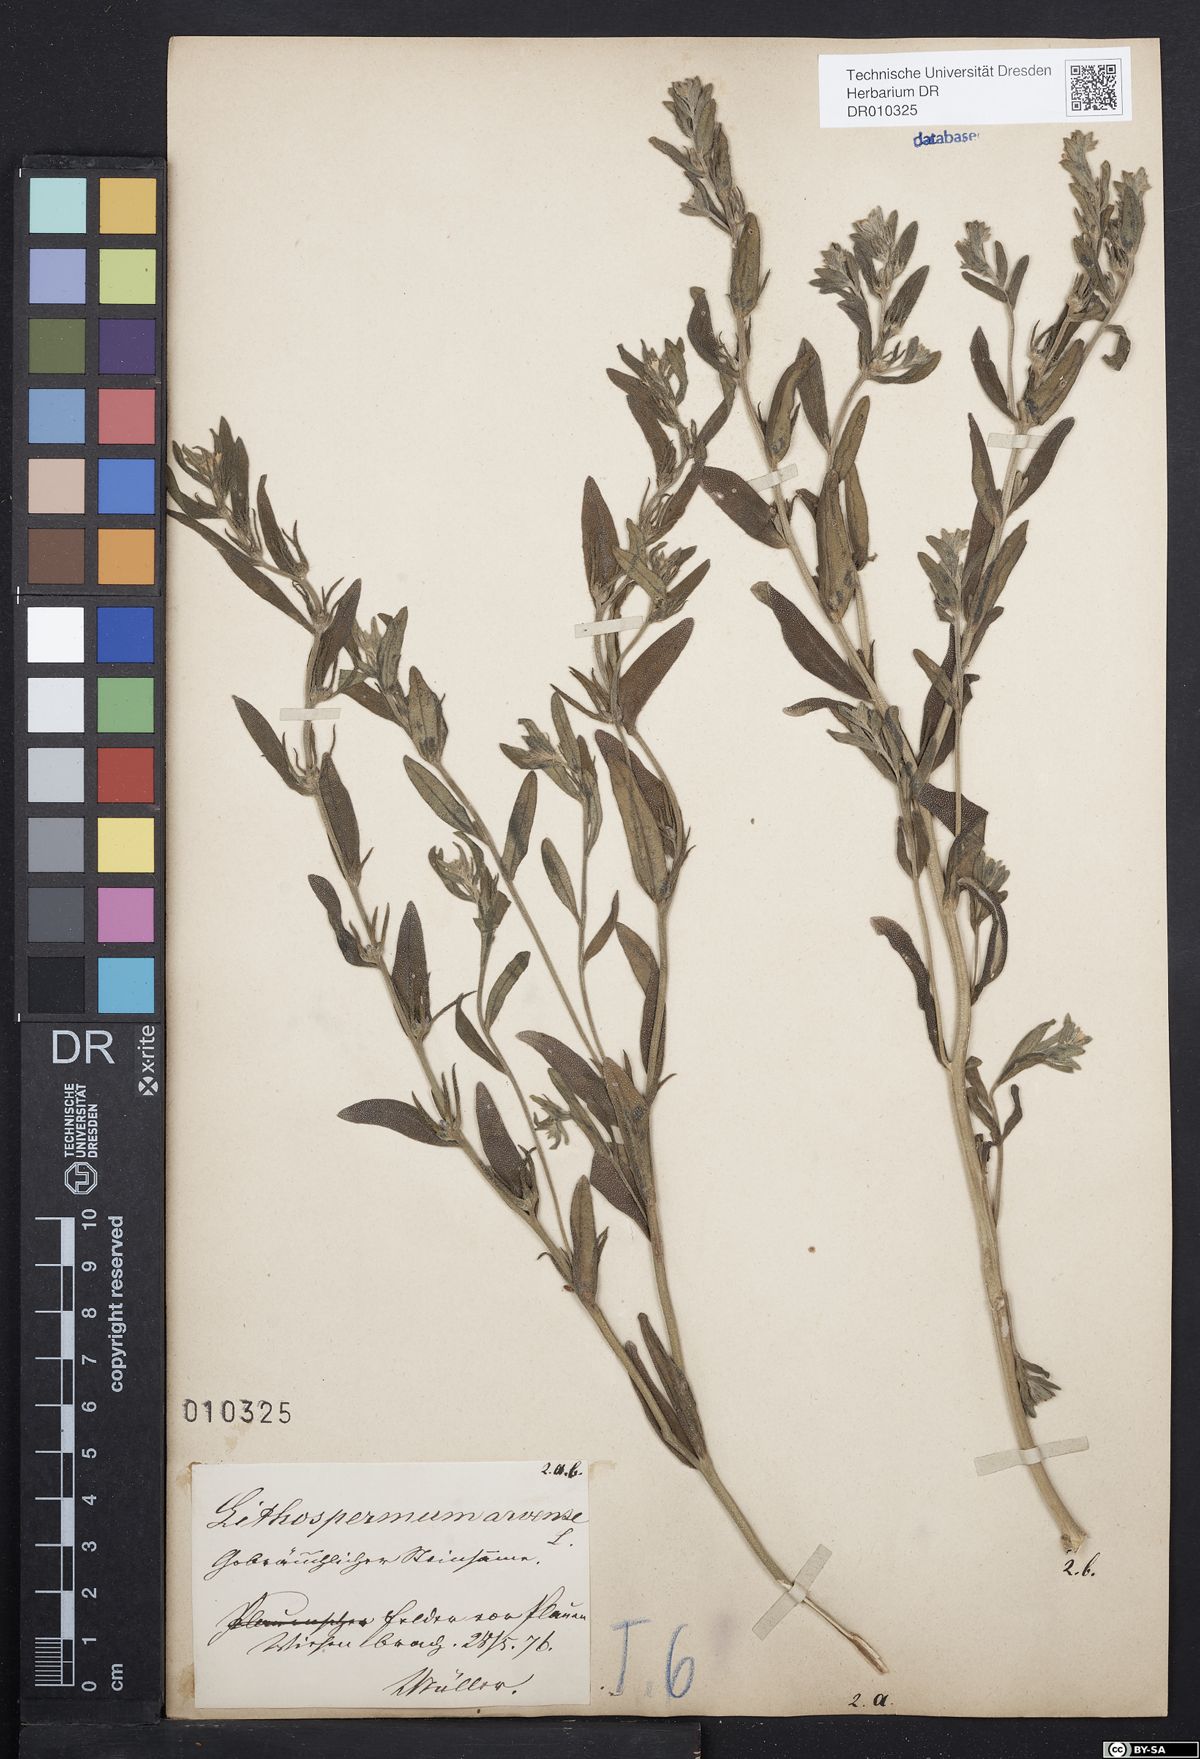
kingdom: Plantae
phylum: Tracheophyta
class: Magnoliopsida
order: Boraginales
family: Boraginaceae
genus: Buglossoides
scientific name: Buglossoides arvensis
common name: Corn gromwell
